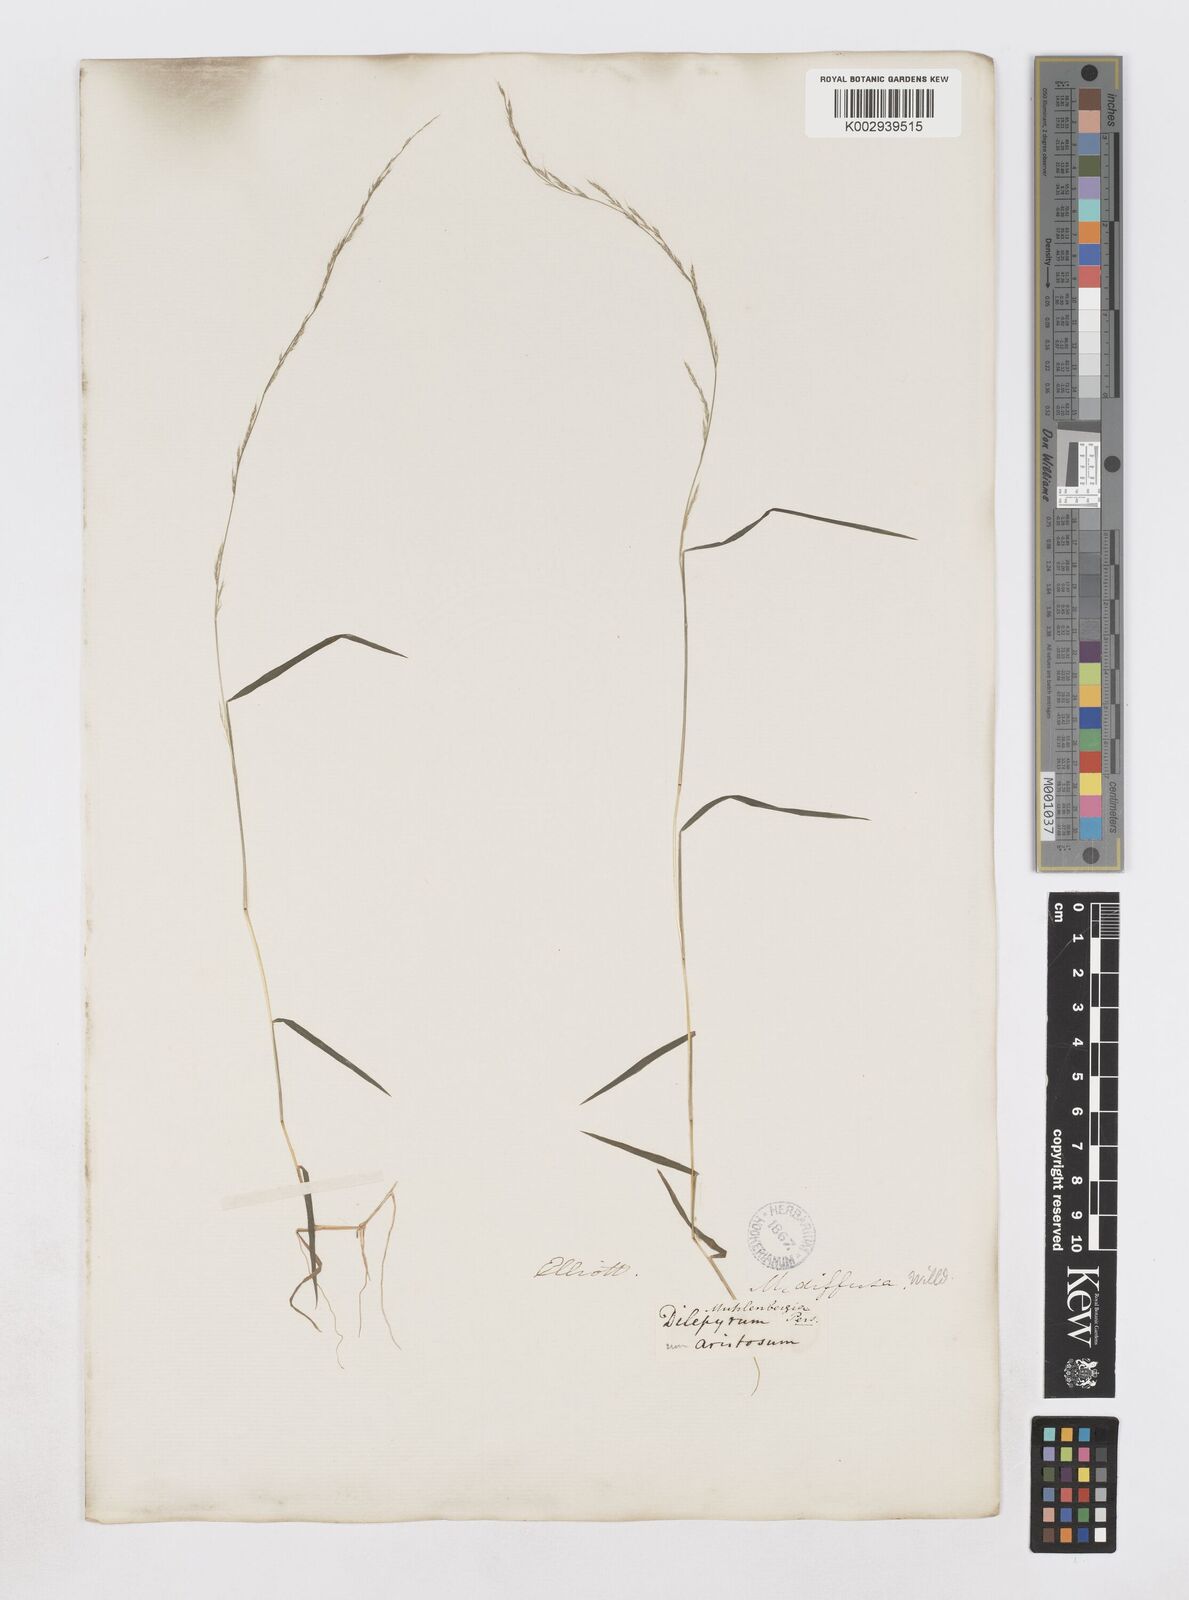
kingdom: Plantae
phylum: Tracheophyta
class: Liliopsida
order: Poales
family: Poaceae
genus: Muhlenbergia
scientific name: Muhlenbergia schreberi
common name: Nimblewill
